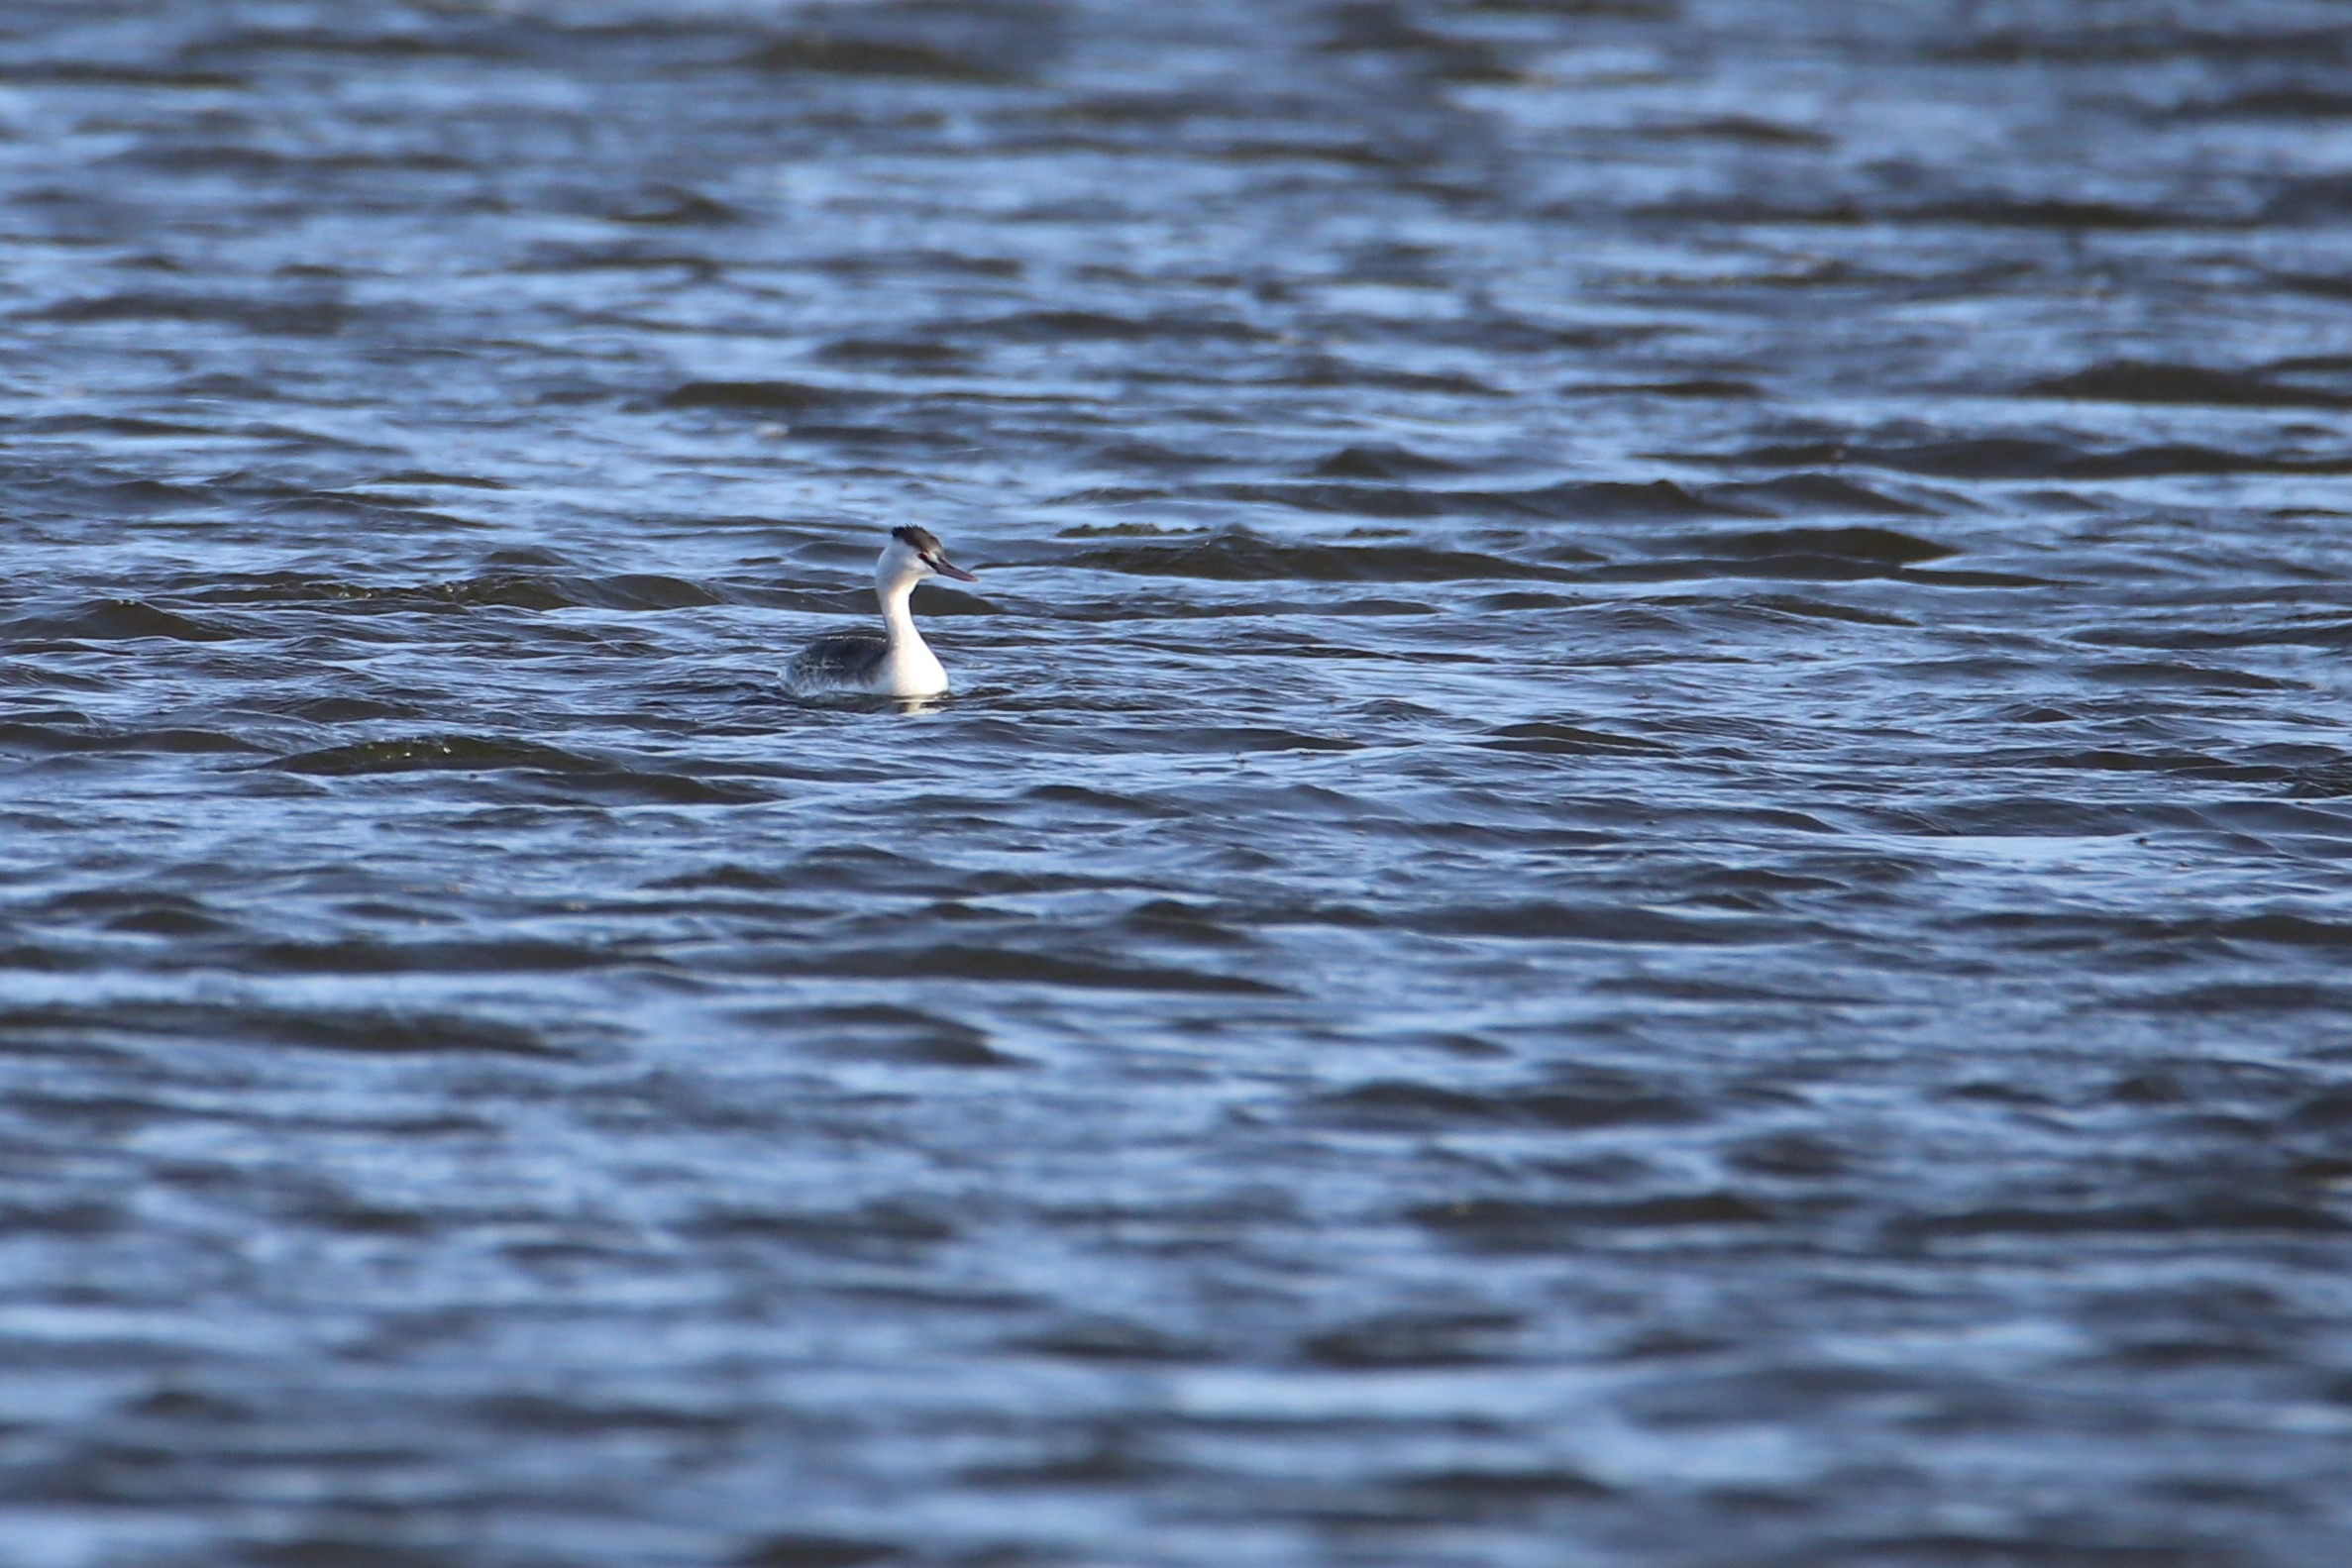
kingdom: Animalia
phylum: Chordata
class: Aves
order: Podicipediformes
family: Podicipedidae
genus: Podiceps
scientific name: Podiceps cristatus
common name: Toppet lappedykker
